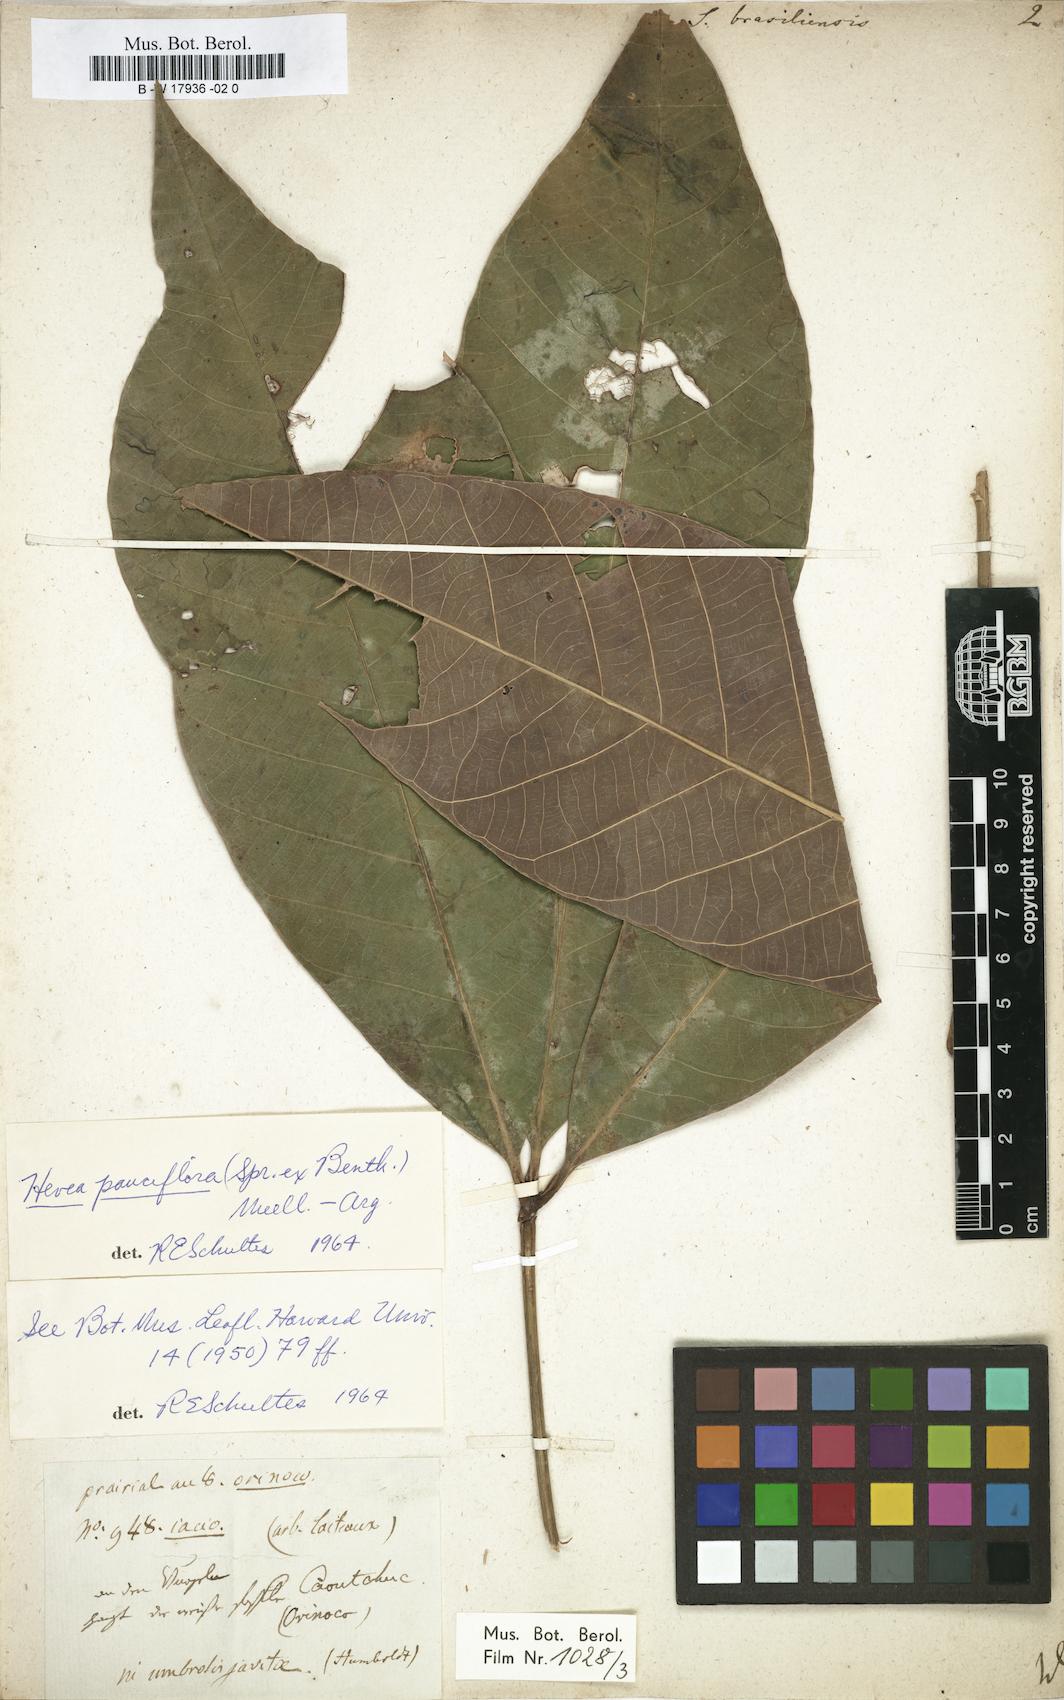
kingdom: Plantae
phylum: Tracheophyta
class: Magnoliopsida
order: Malpighiales
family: Euphorbiaceae
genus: Hevea
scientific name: Hevea brasiliensis
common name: Natural rubber
